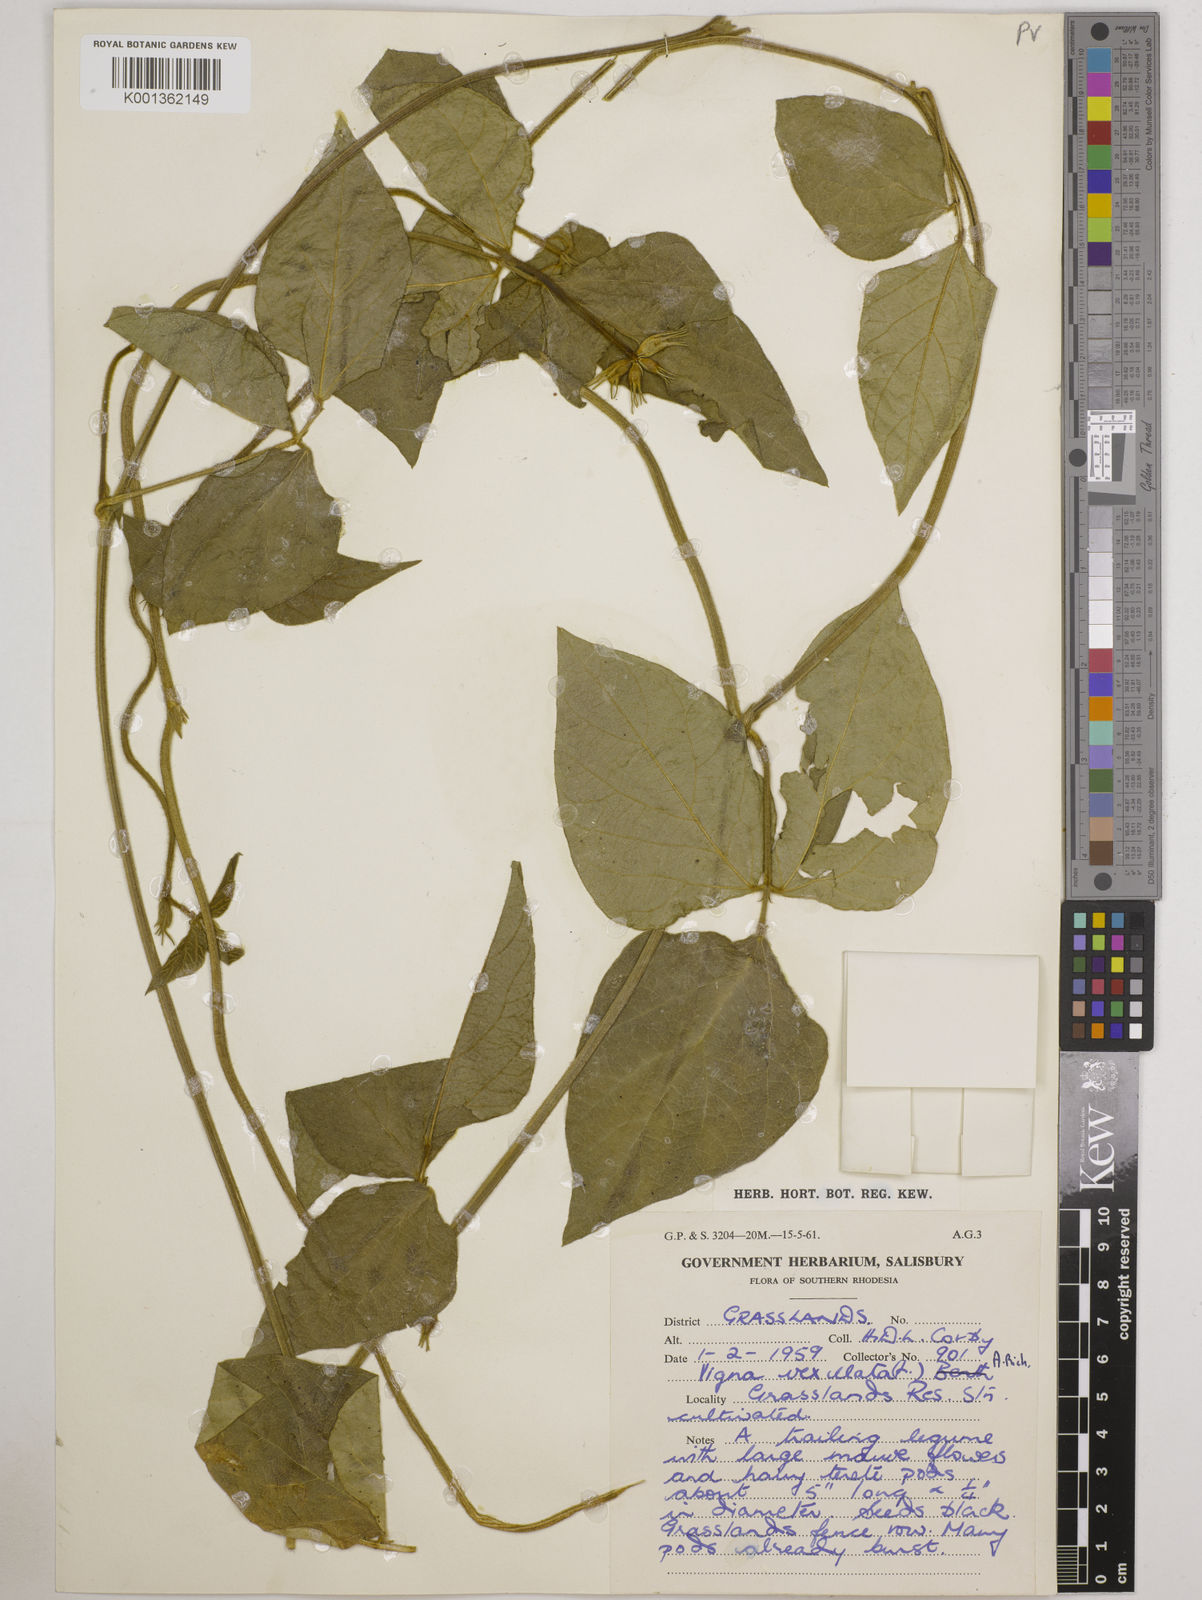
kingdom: Plantae
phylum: Tracheophyta
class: Magnoliopsida
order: Fabales
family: Fabaceae
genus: Vigna
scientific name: Vigna vexillata
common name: Zombi pea
